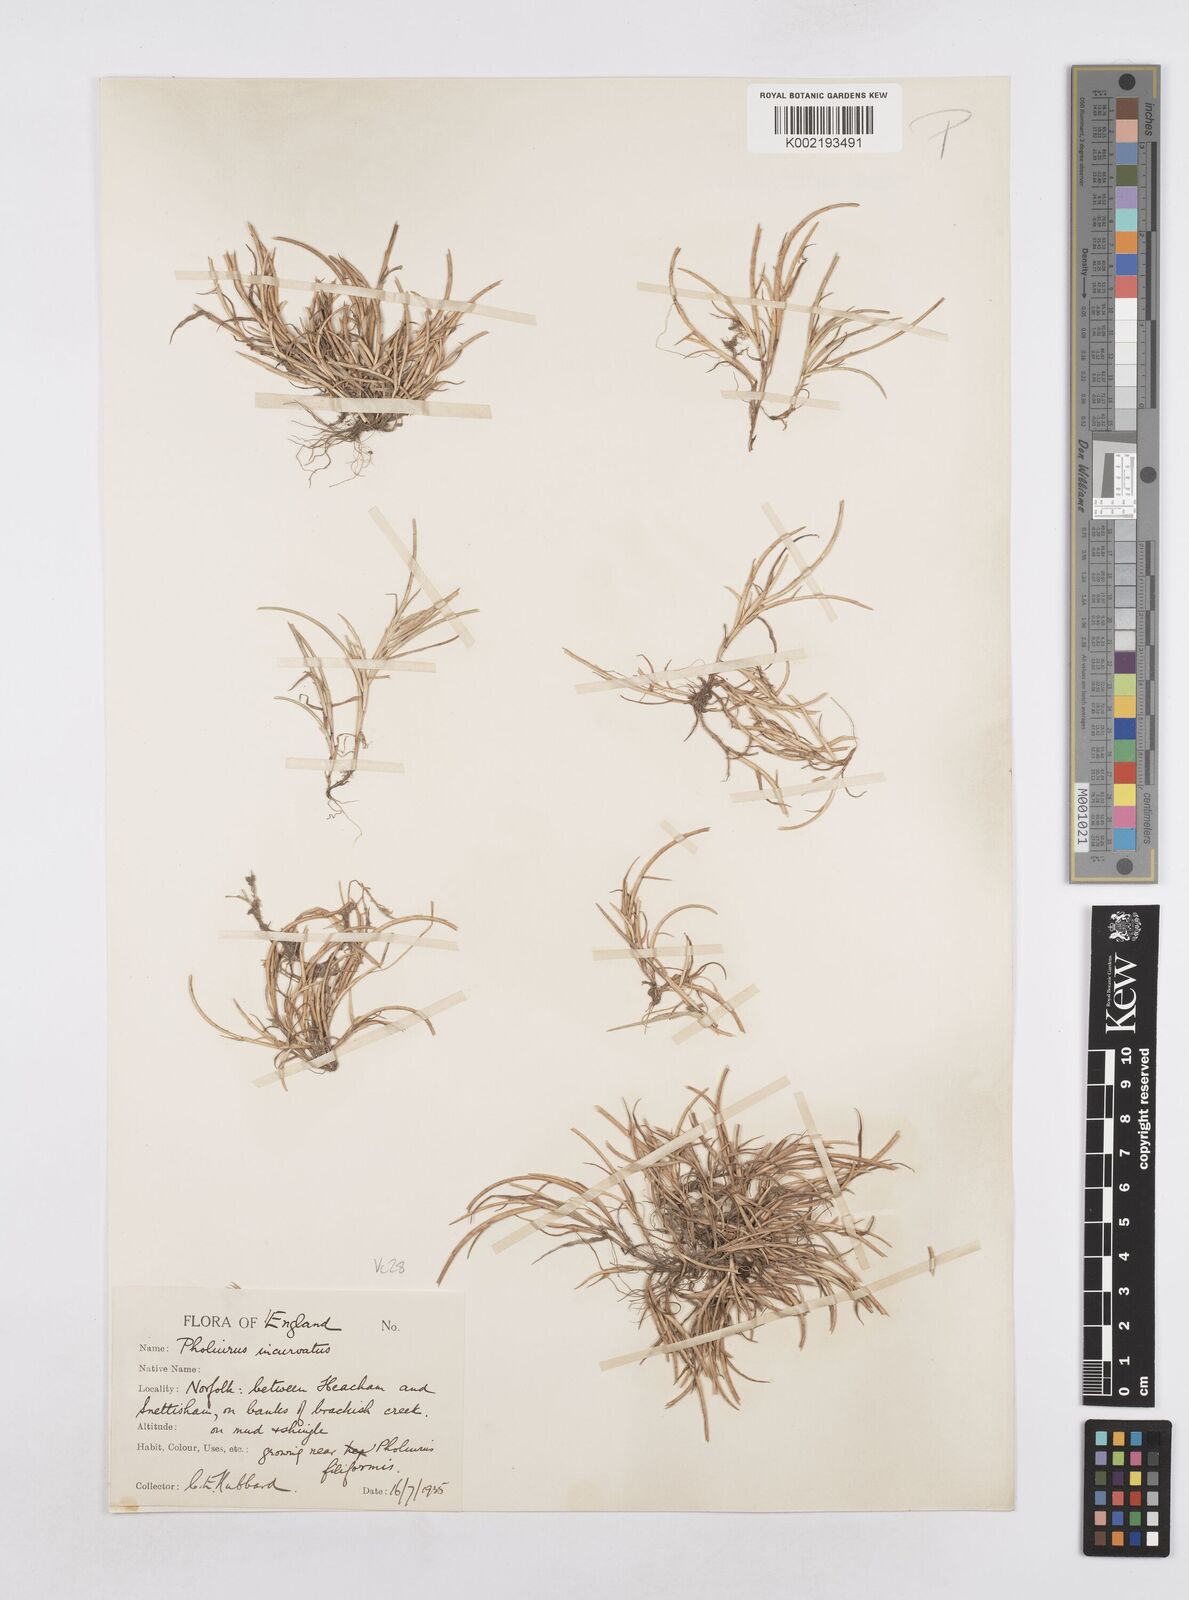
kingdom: Plantae
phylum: Tracheophyta
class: Liliopsida
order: Poales
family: Poaceae
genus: Parapholis
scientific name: Parapholis incurva
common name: Curved sicklegrass
